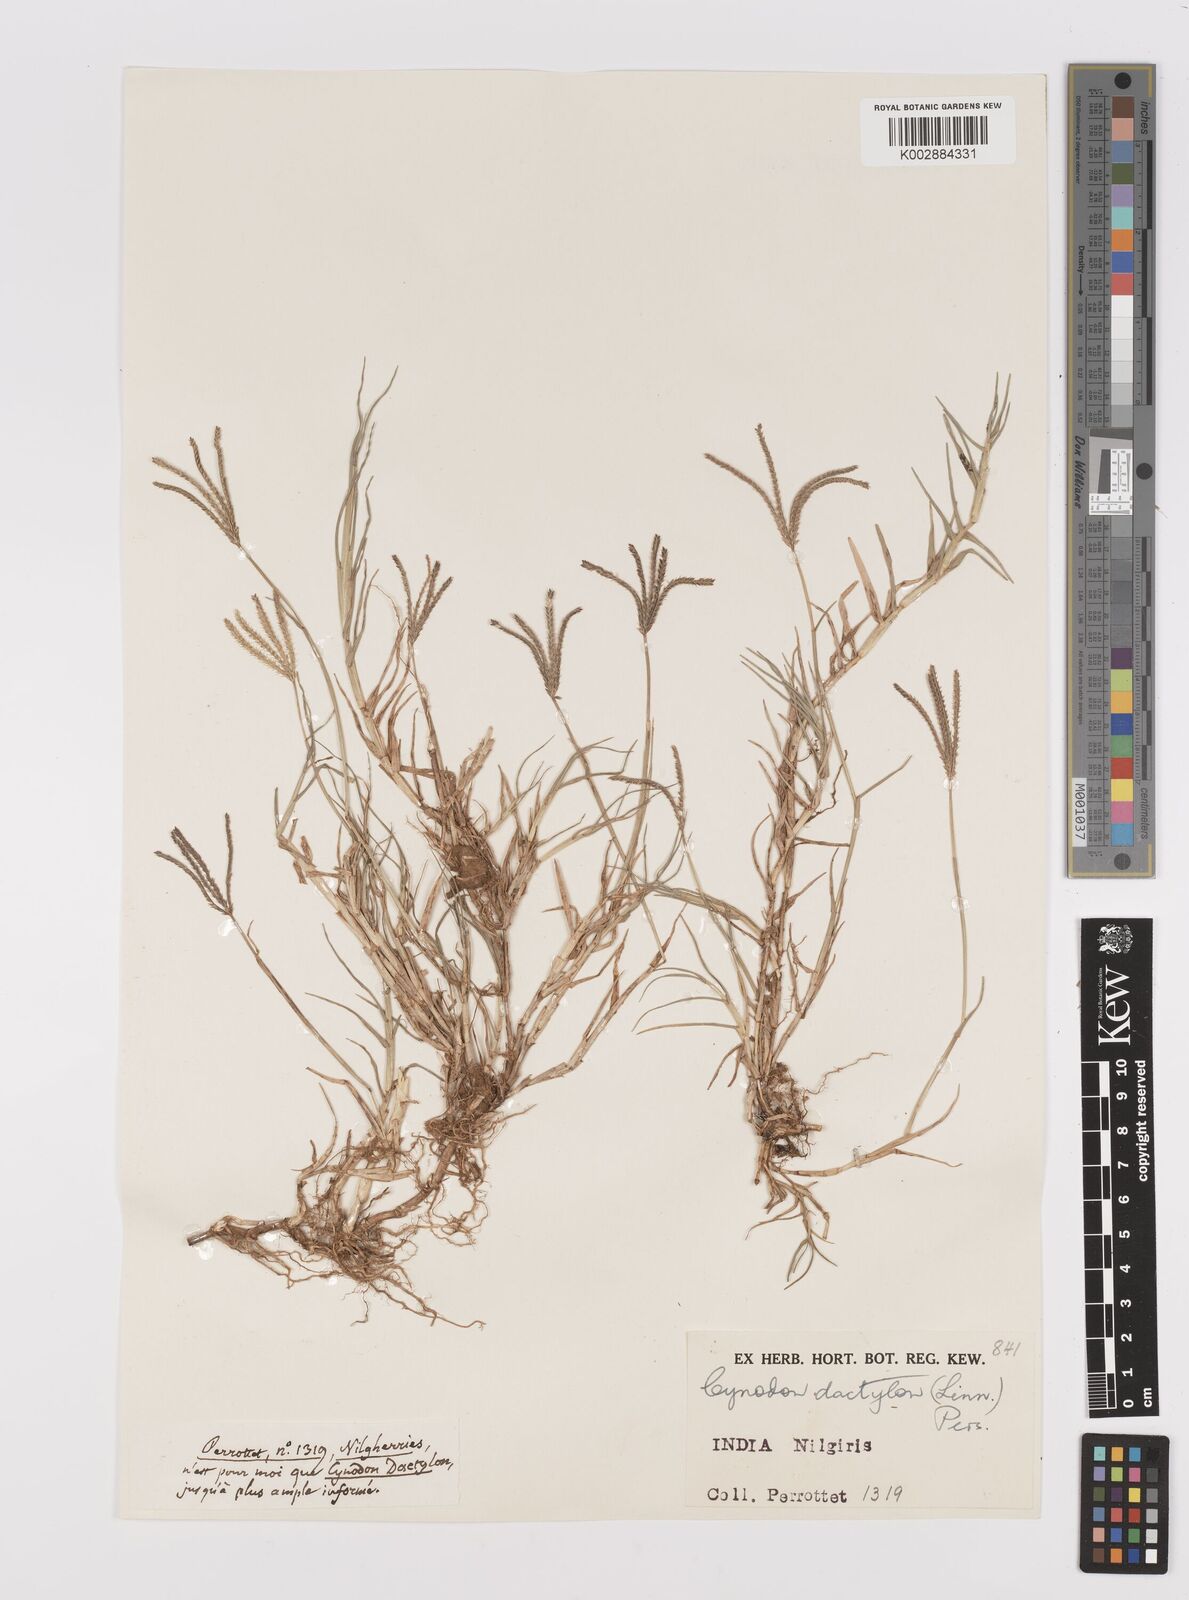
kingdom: Plantae
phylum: Tracheophyta
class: Liliopsida
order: Poales
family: Poaceae
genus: Cynodon
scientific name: Cynodon dactylon
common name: Bermuda grass
